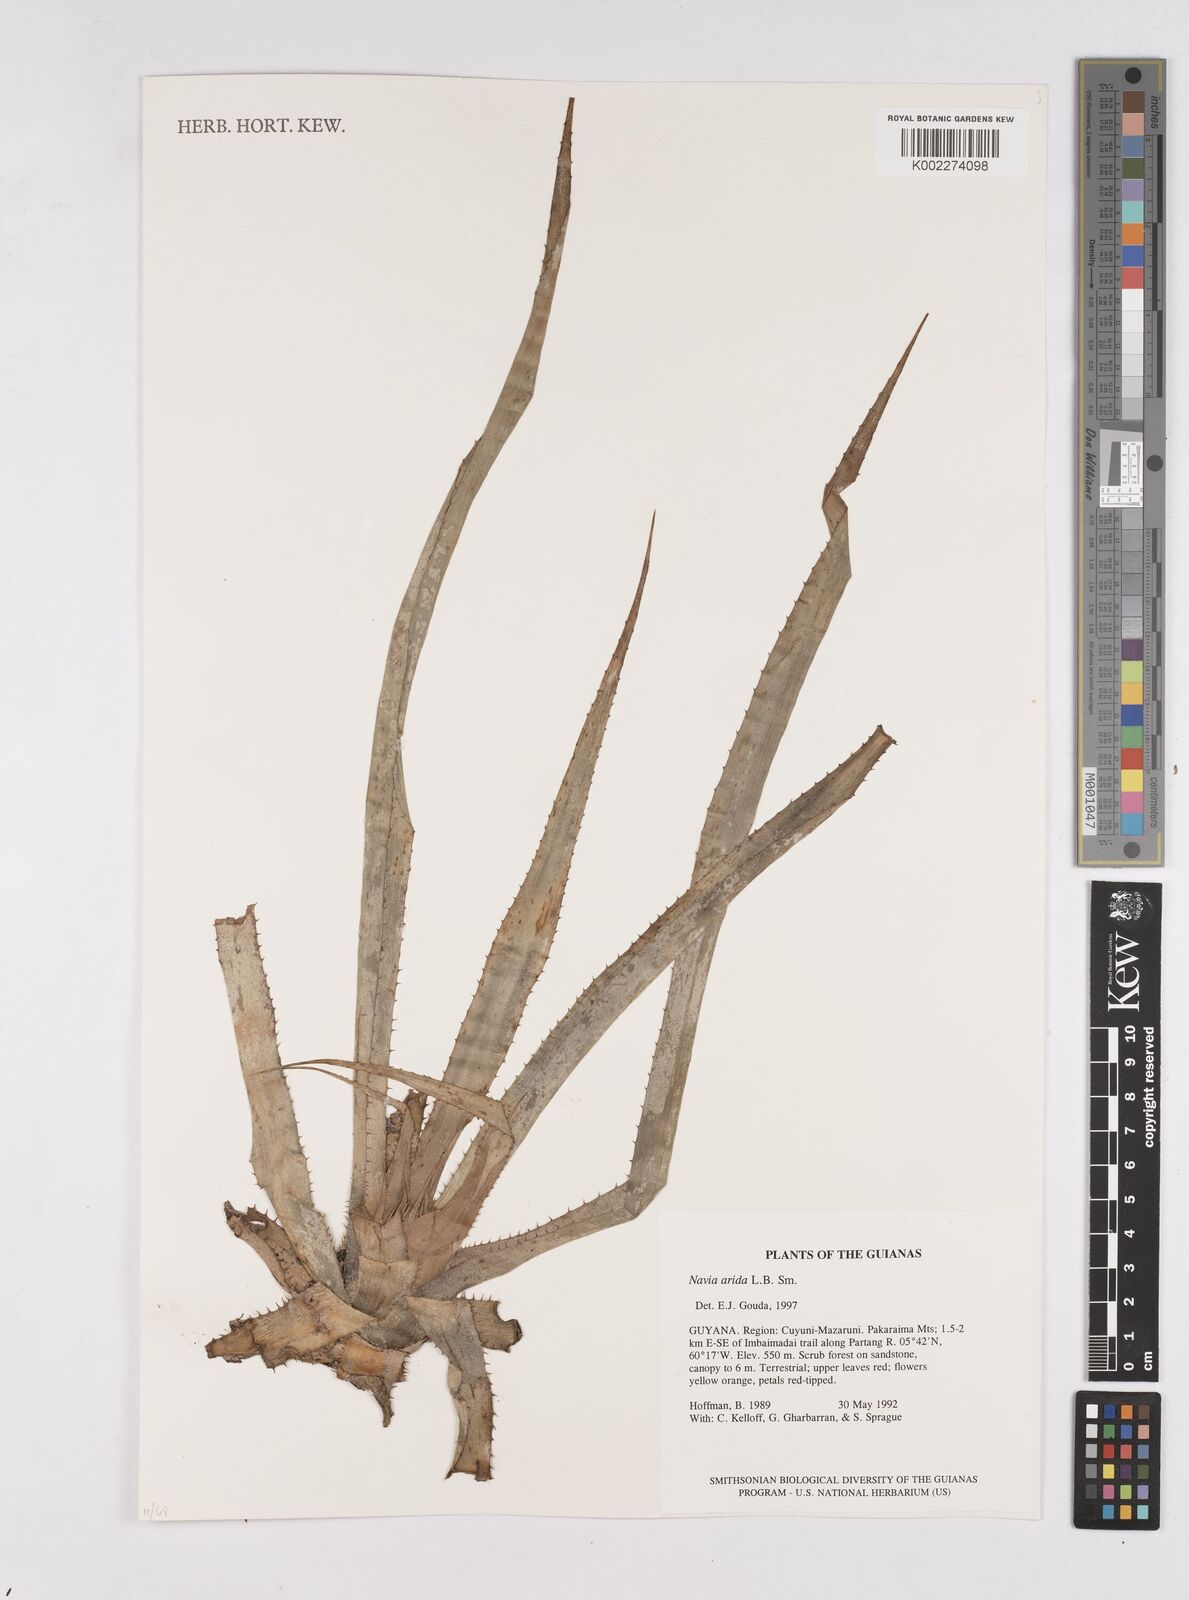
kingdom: Plantae
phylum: Tracheophyta
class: Liliopsida
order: Poales
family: Bromeliaceae
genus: Navia
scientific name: Navia arida
